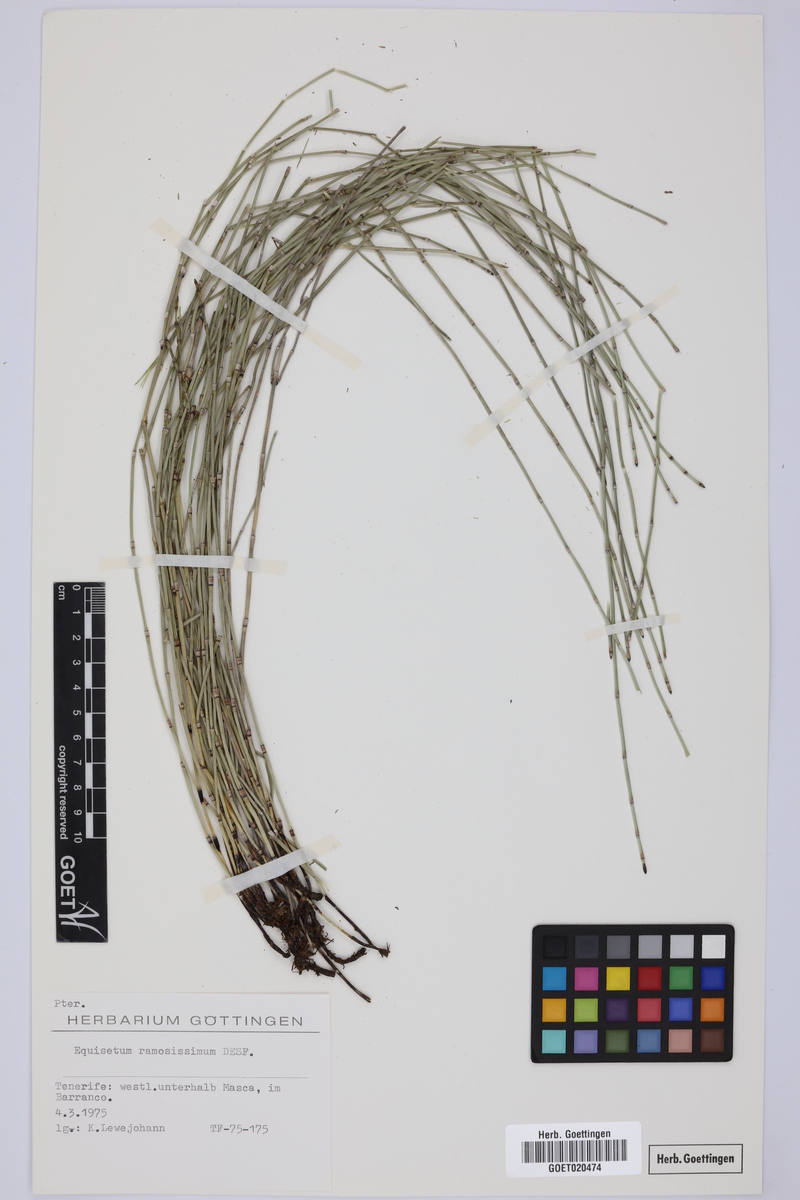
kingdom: Plantae
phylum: Tracheophyta
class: Polypodiopsida
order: Equisetales
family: Equisetaceae
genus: Equisetum
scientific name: Equisetum ramosissimum
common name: Branched horsetail
